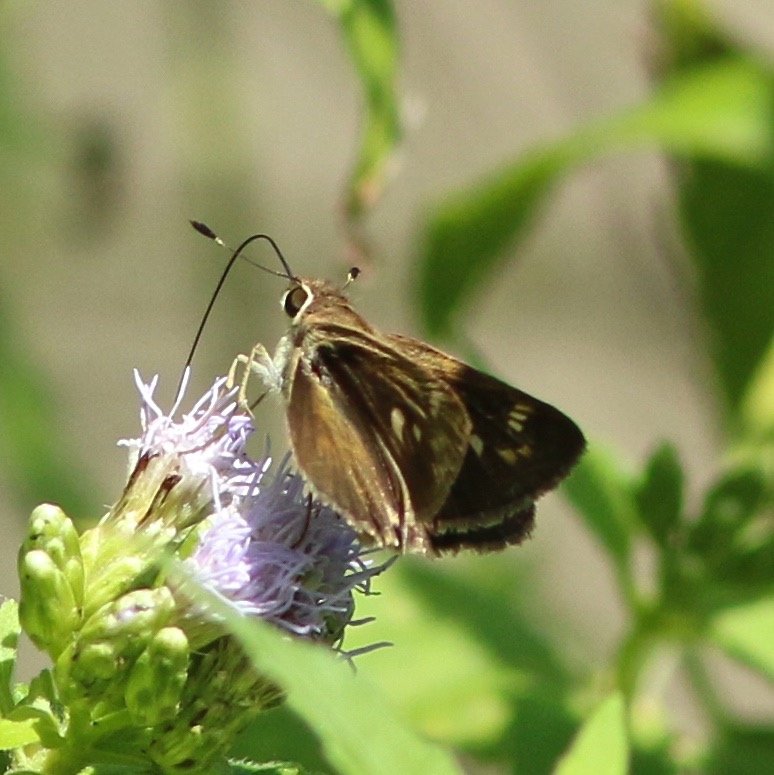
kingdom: Animalia
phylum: Arthropoda
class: Insecta
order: Lepidoptera
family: Hesperiidae
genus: Polites
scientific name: Polites vibex
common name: Whirlabout
